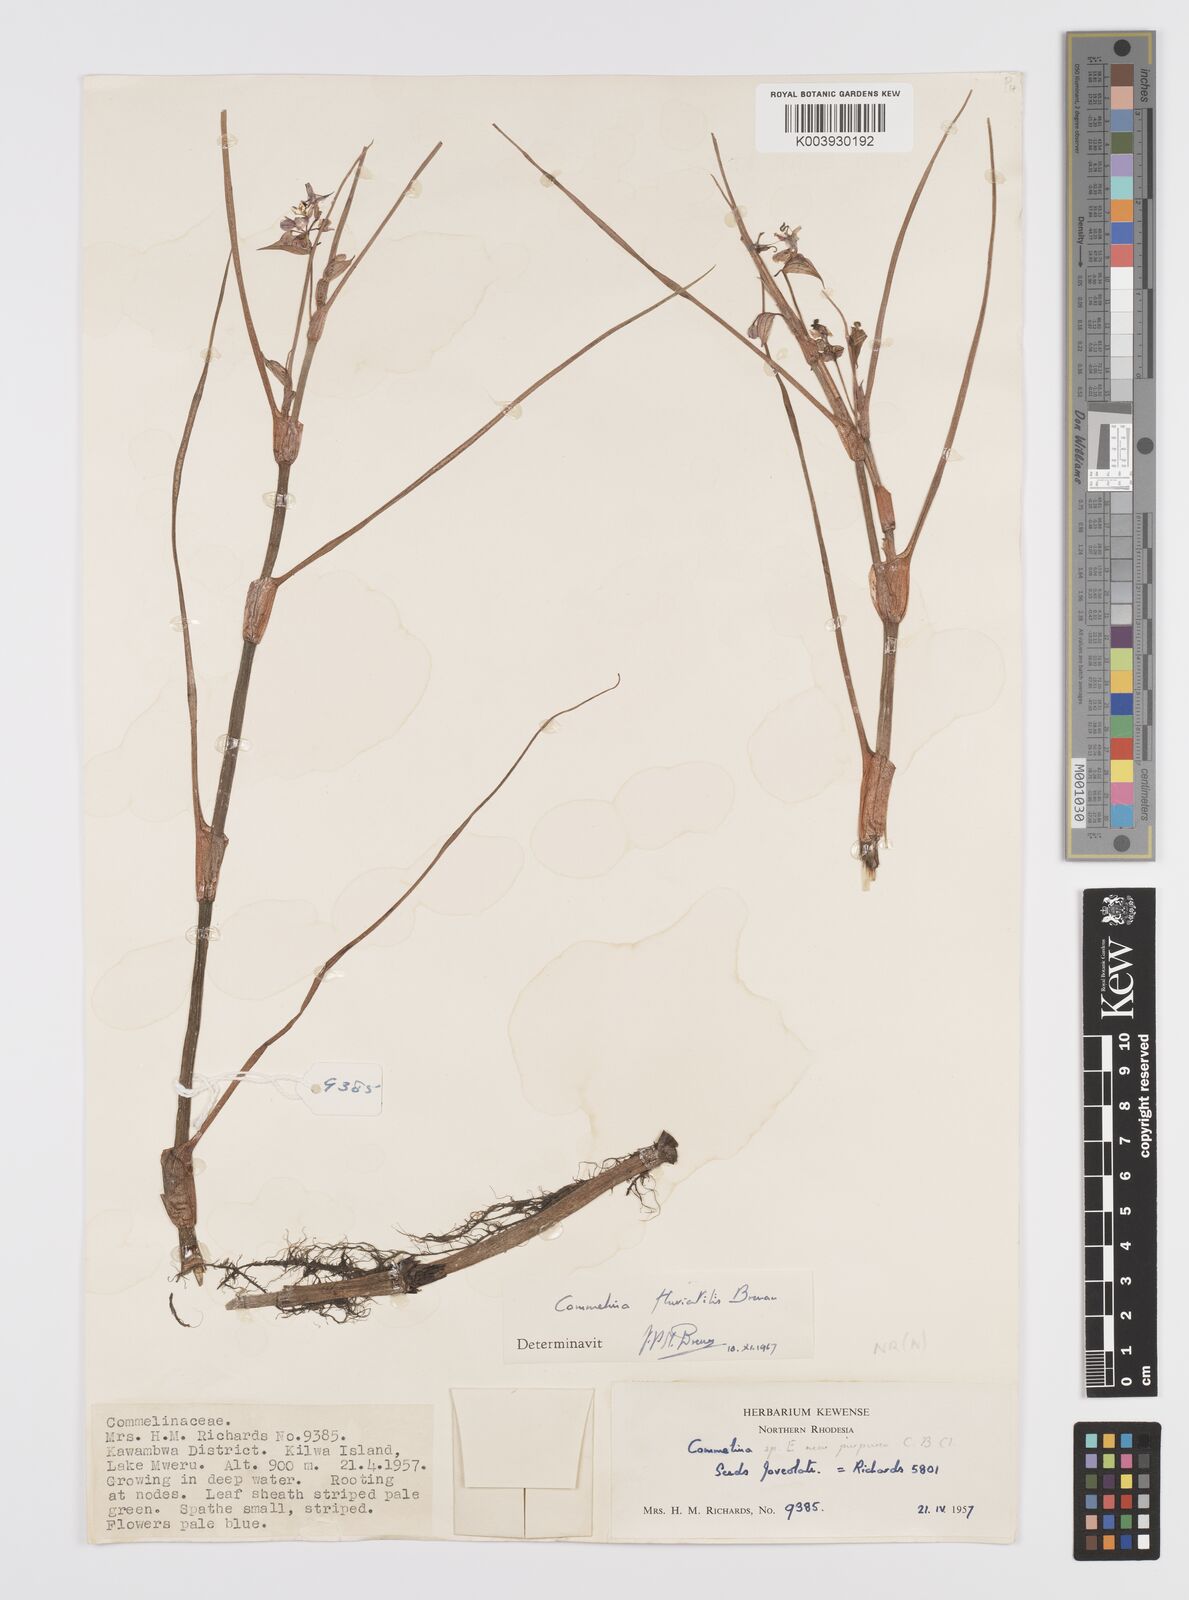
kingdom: Plantae
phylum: Tracheophyta
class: Liliopsida
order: Commelinales
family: Commelinaceae
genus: Commelina
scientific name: Commelina fluviatilis
